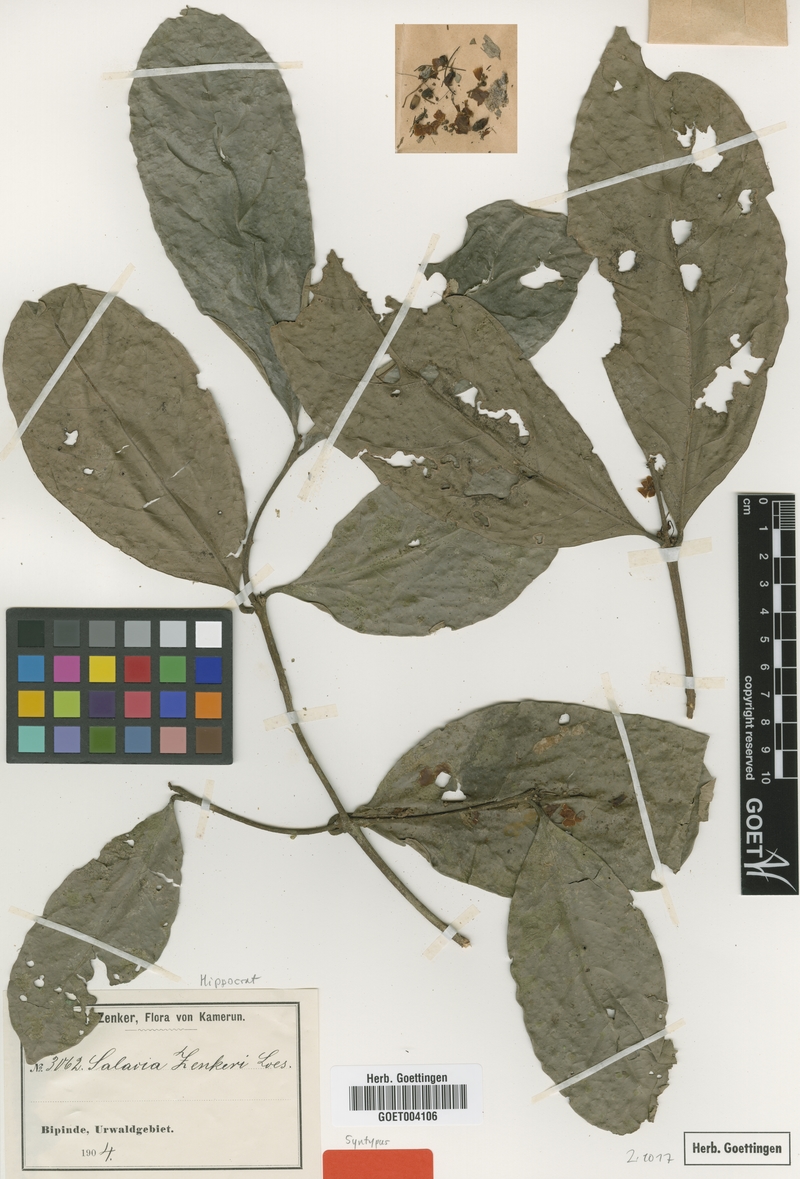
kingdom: Plantae
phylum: Tracheophyta
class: Magnoliopsida
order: Celastrales
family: Celastraceae
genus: Salacia
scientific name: Salacia zenkeri
